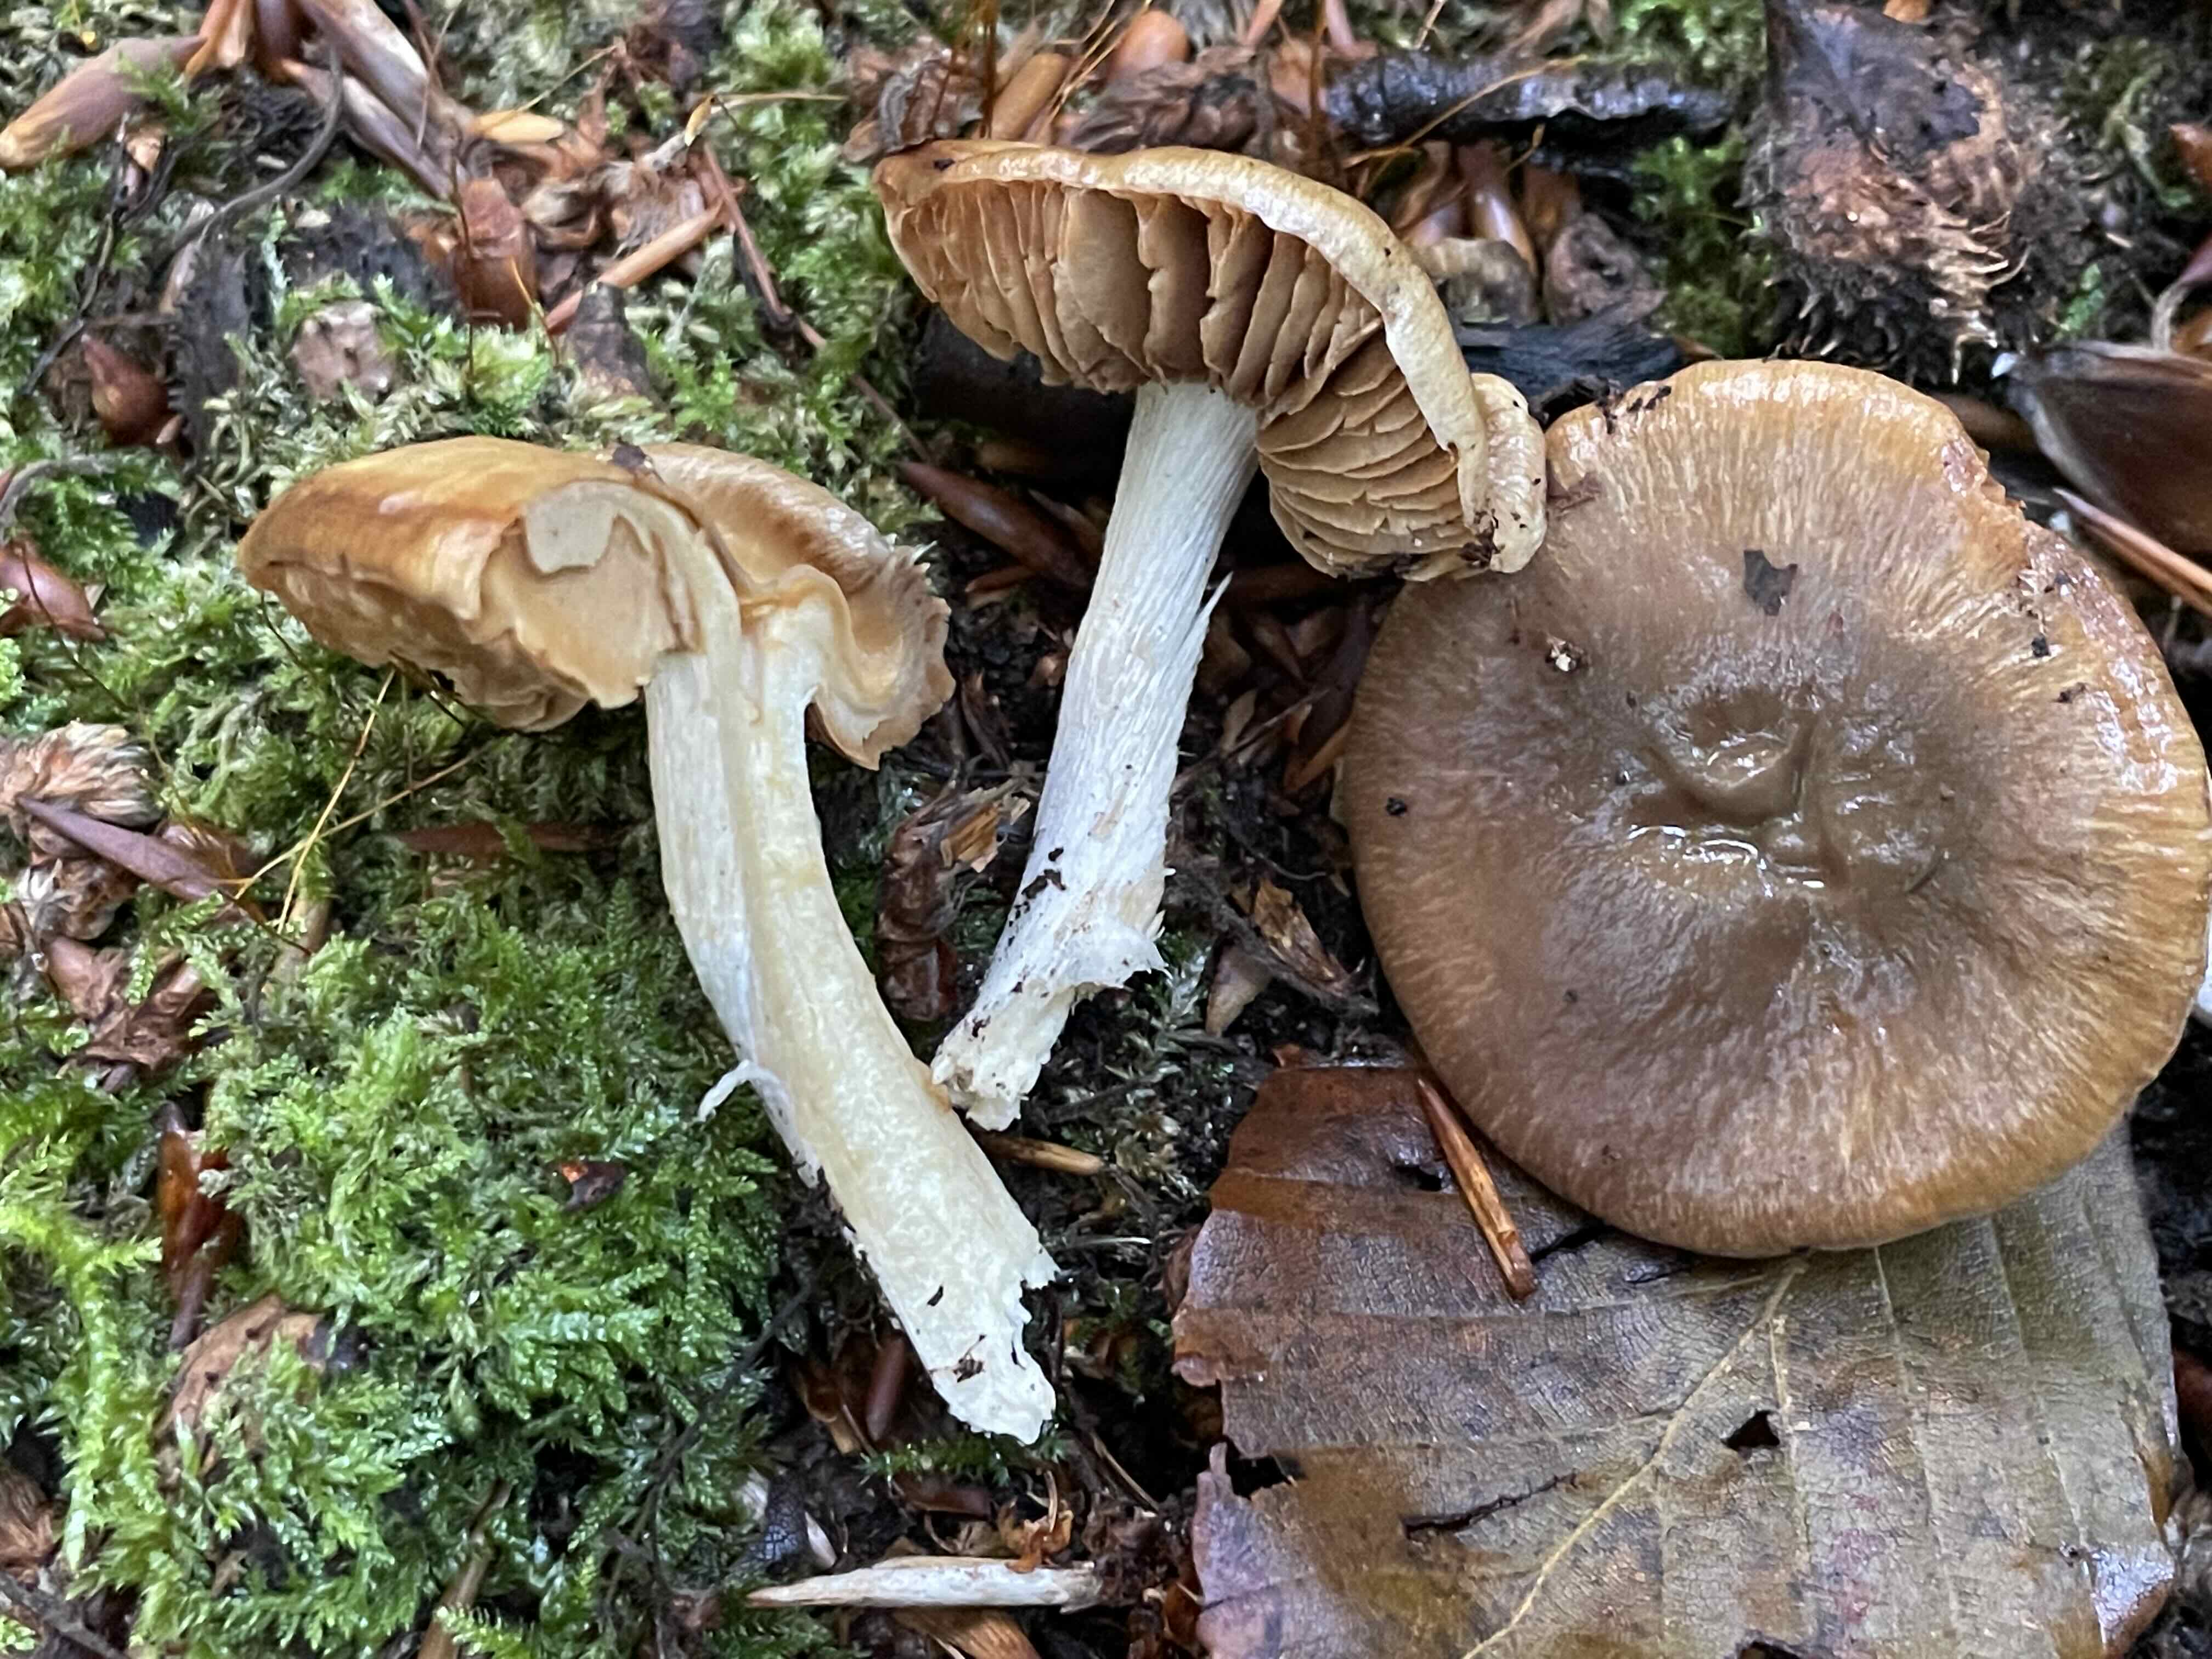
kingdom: Fungi
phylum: Basidiomycota
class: Agaricomycetes
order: Agaricales
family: Cortinariaceae
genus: Cortinarius
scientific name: Cortinarius
